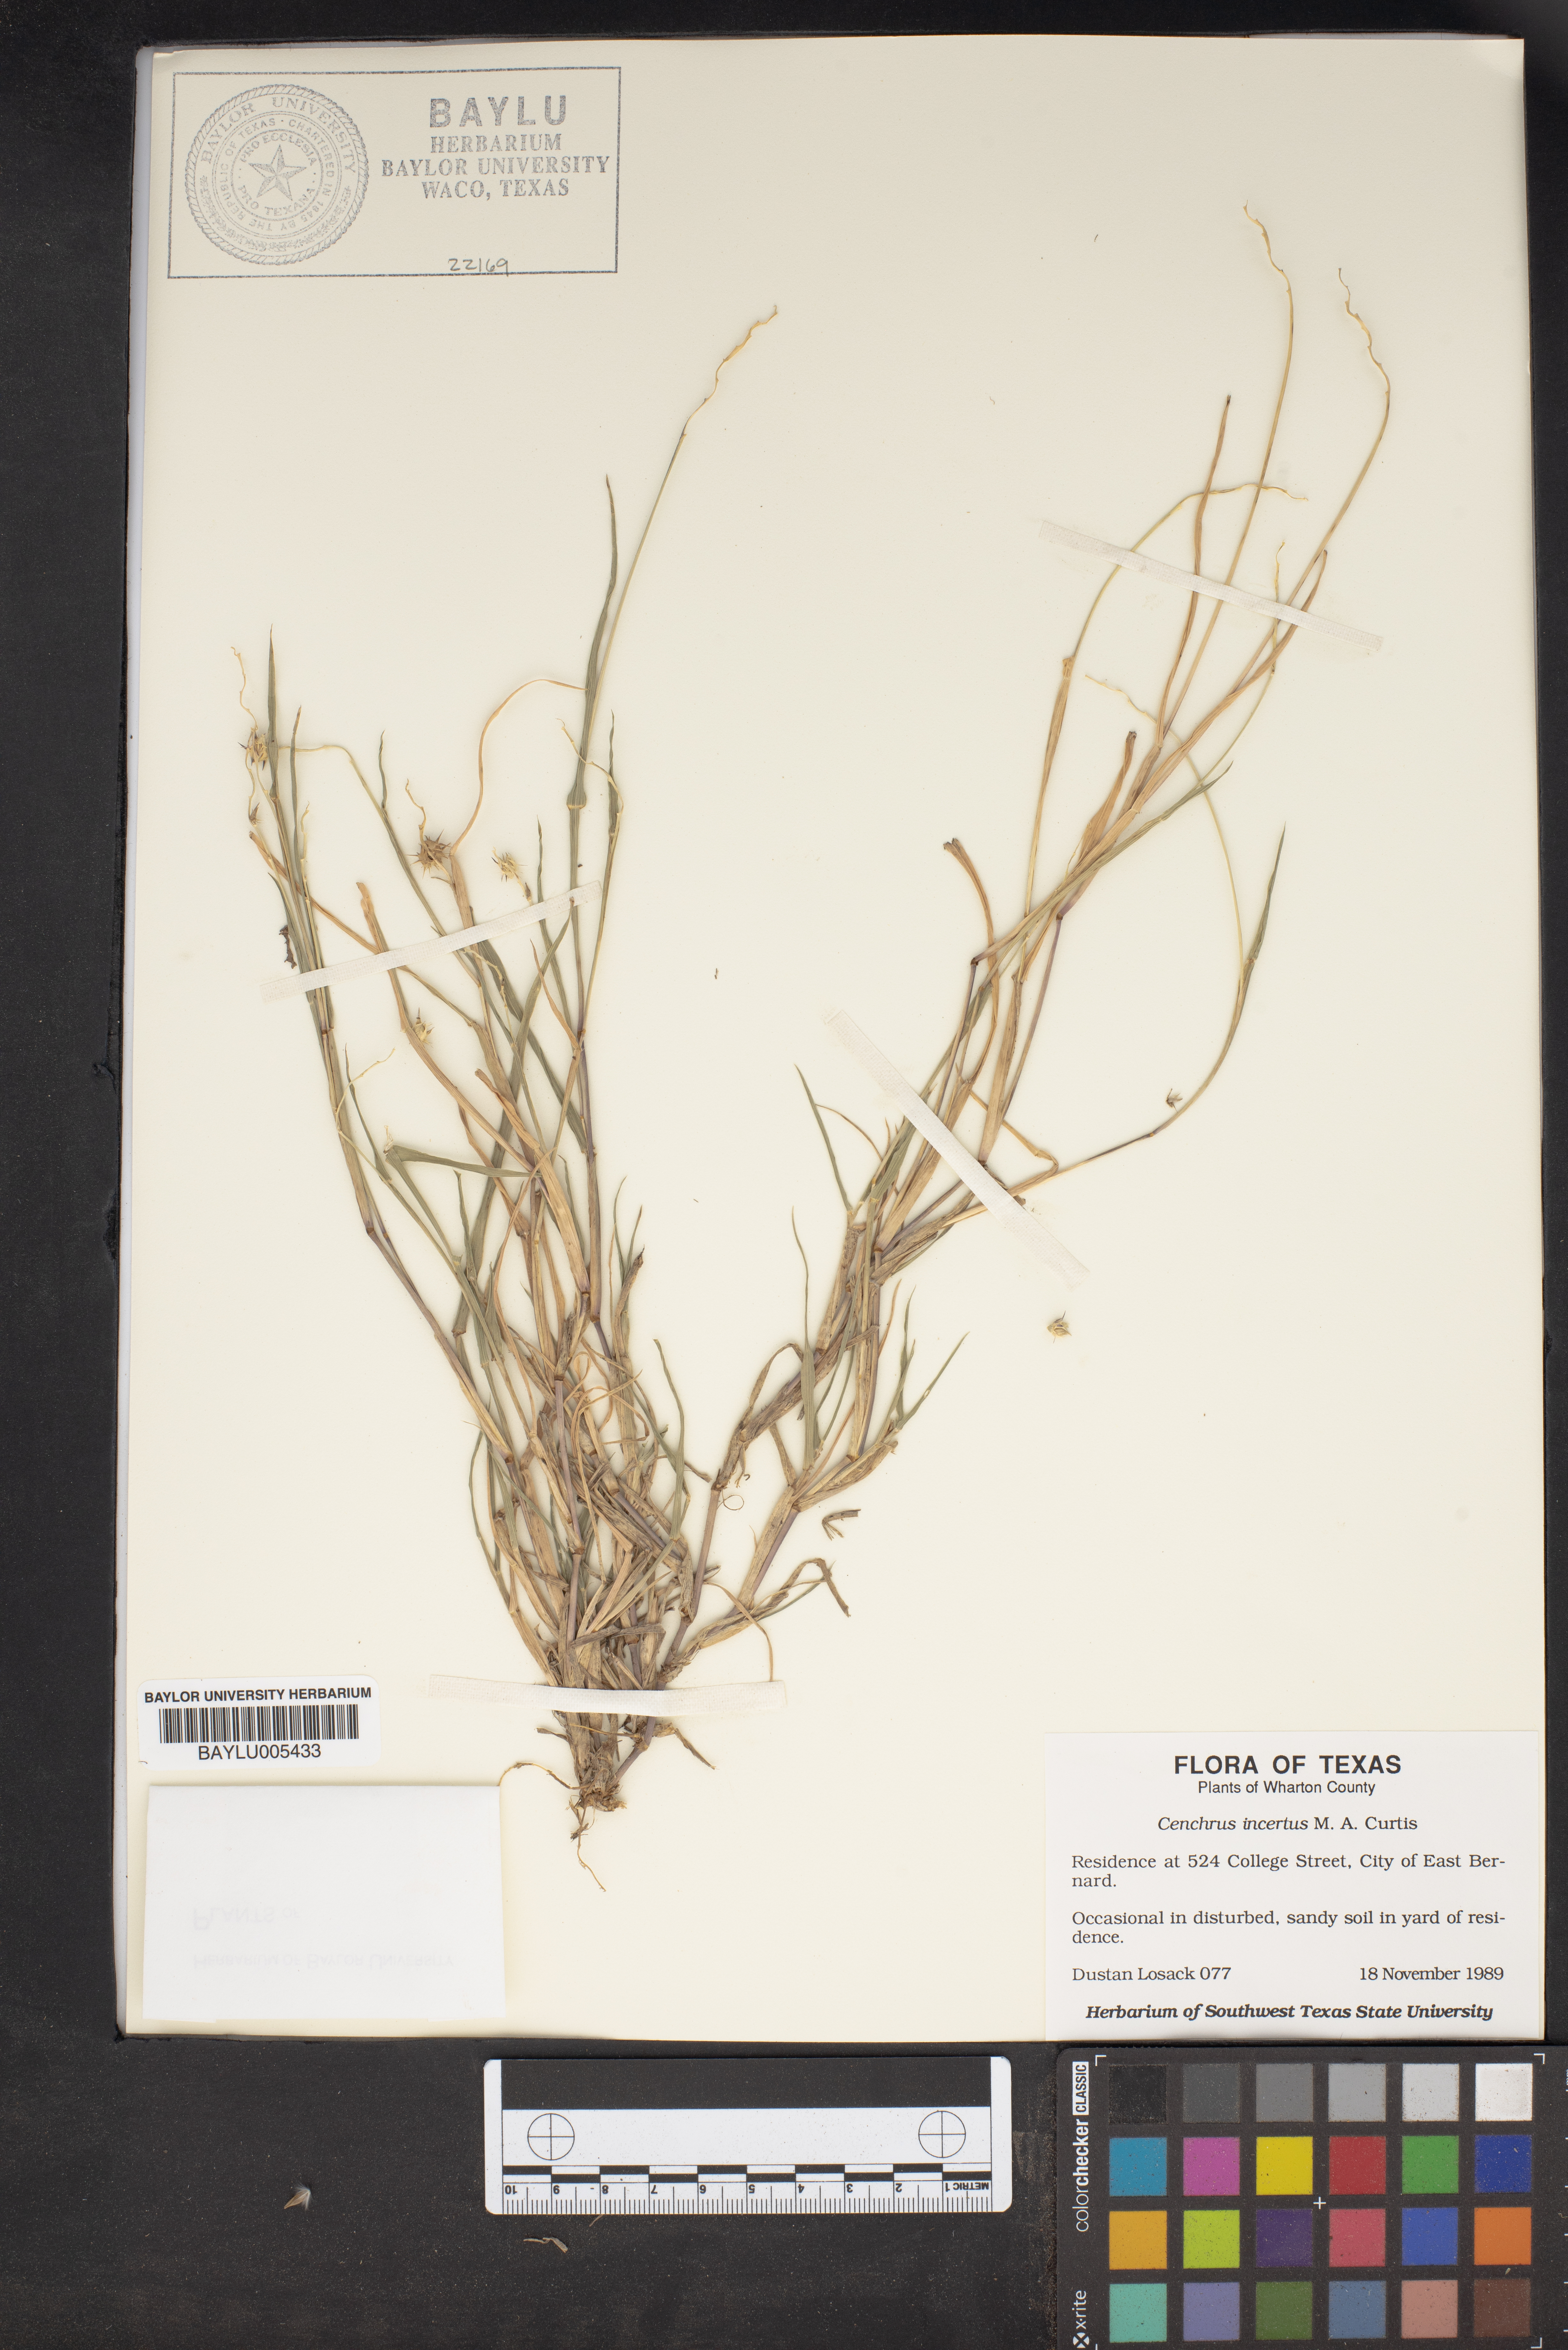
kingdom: Plantae
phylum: Tracheophyta
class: Liliopsida
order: Poales
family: Poaceae
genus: Cenchrus
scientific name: Cenchrus spinifex
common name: Coast sandbur
